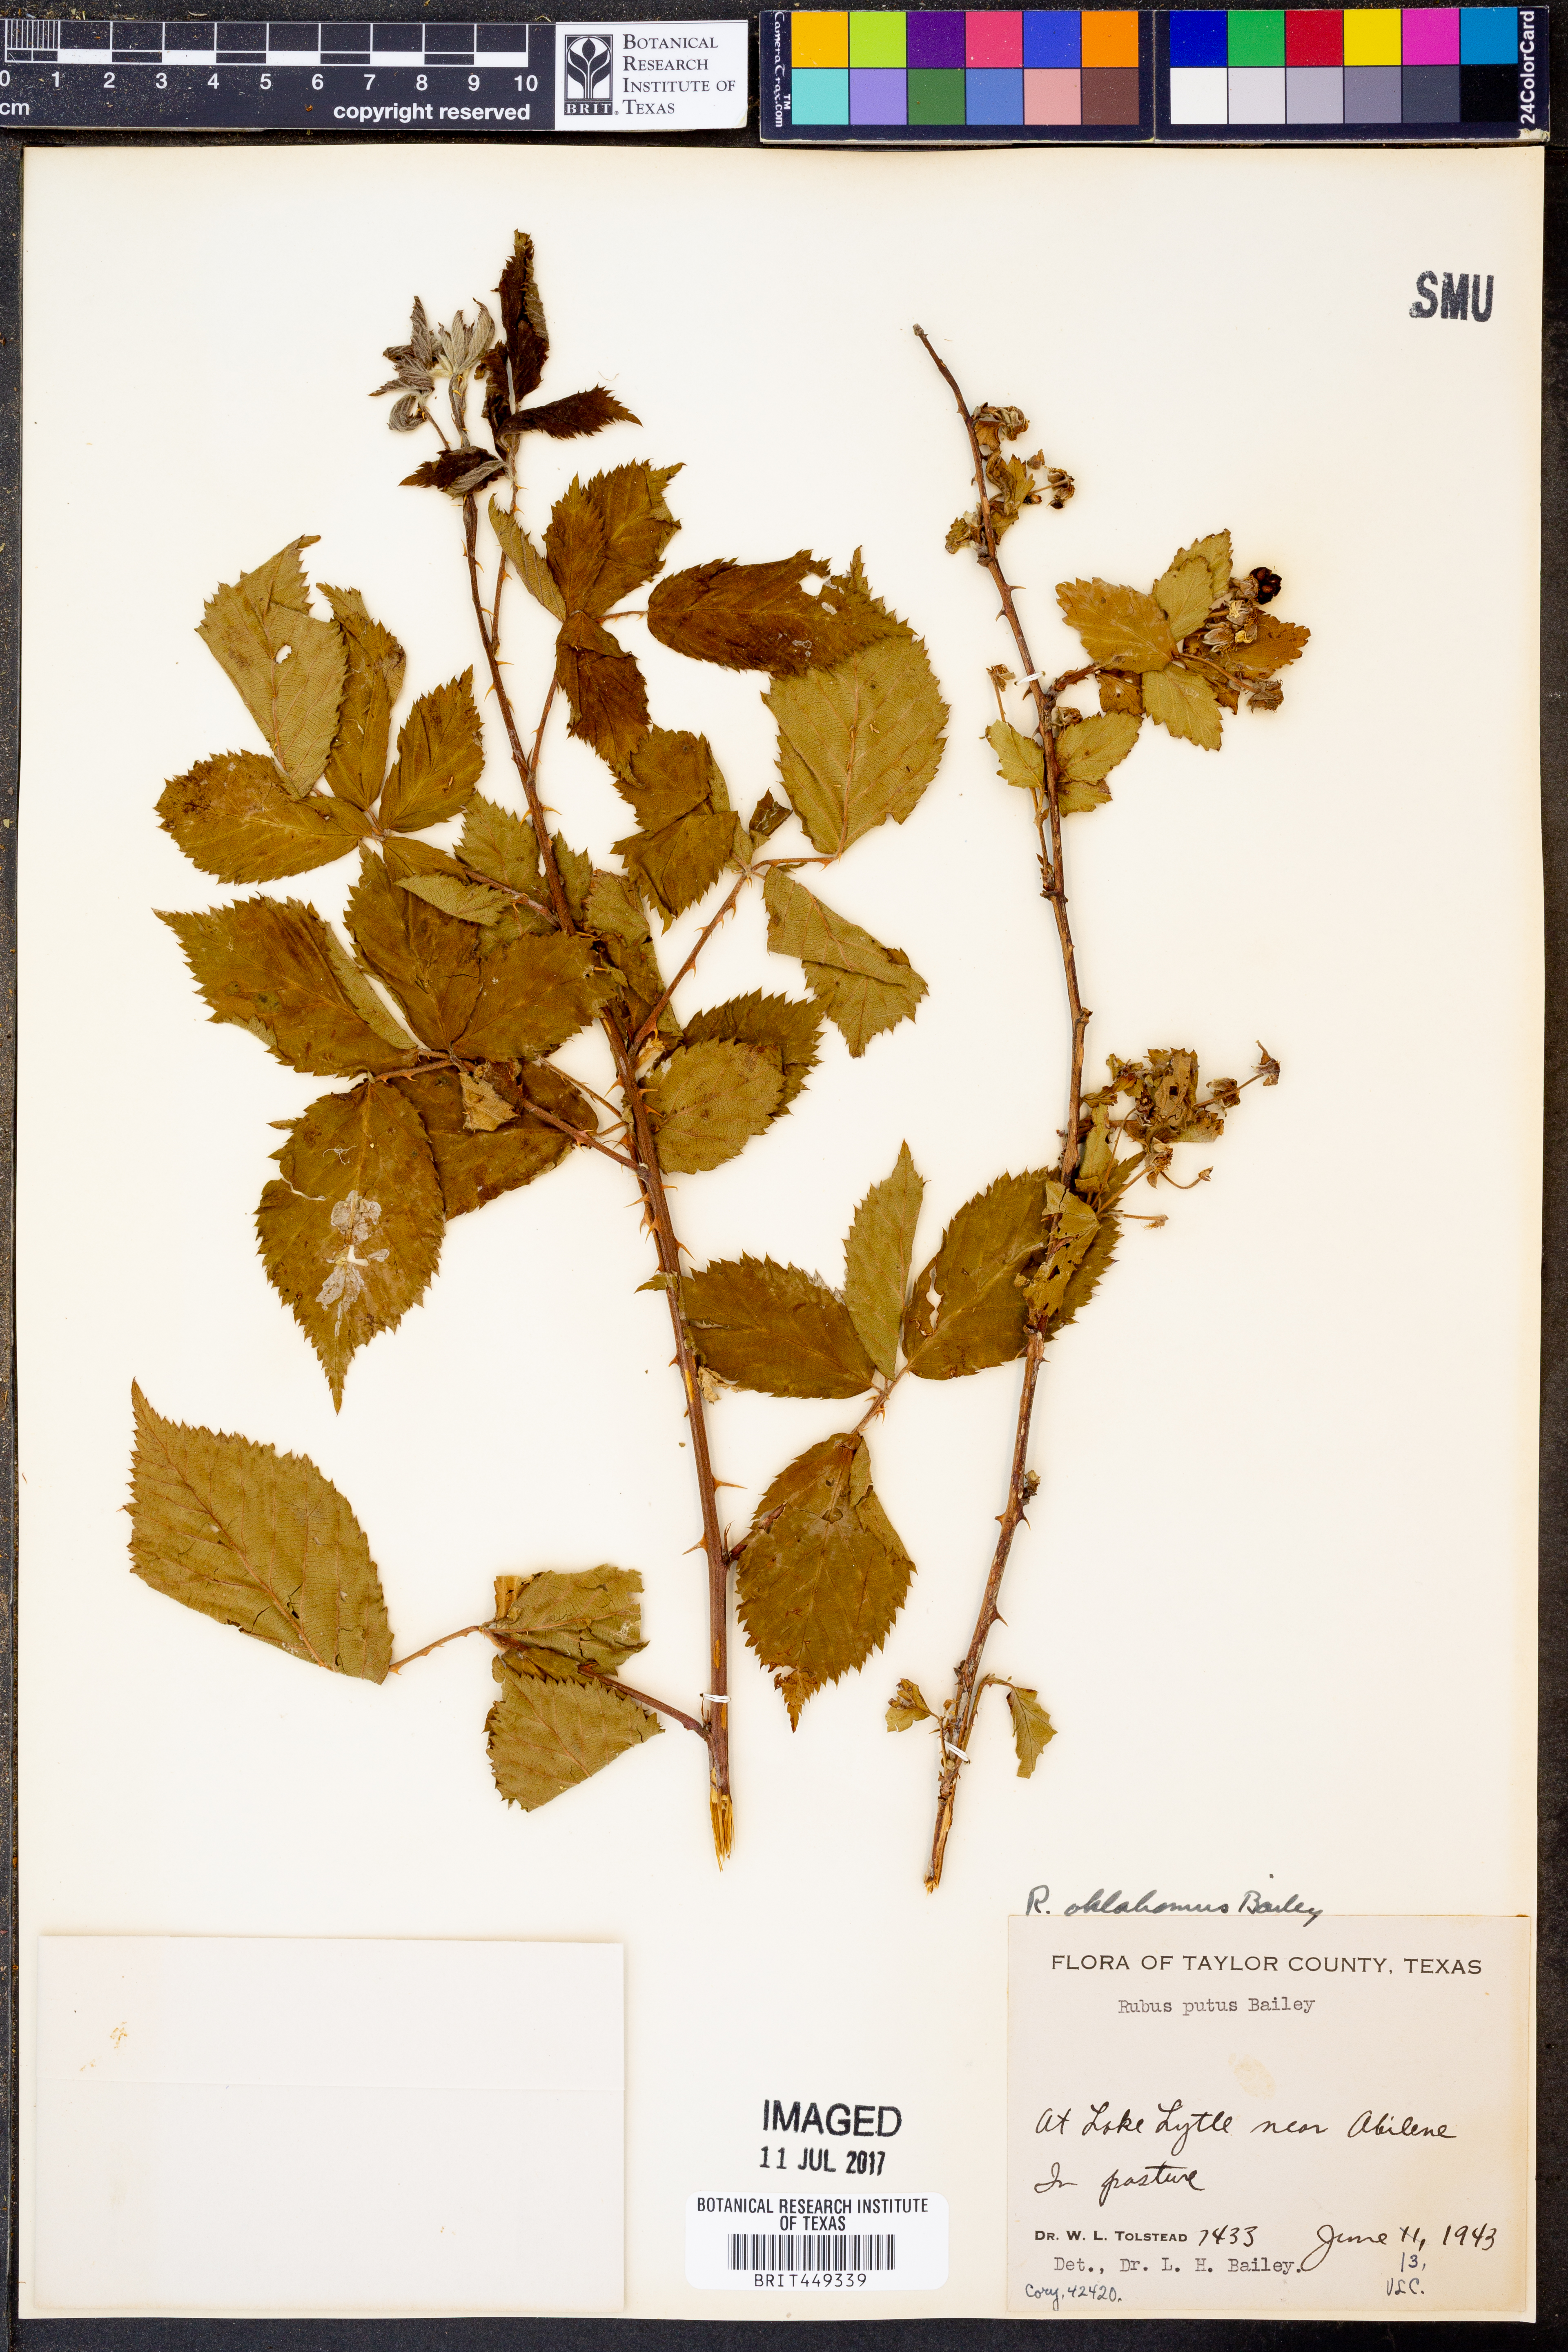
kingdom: Plantae
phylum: Tracheophyta
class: Magnoliopsida
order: Rosales
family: Rosaceae
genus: Rubus
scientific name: Rubus oklahomus
